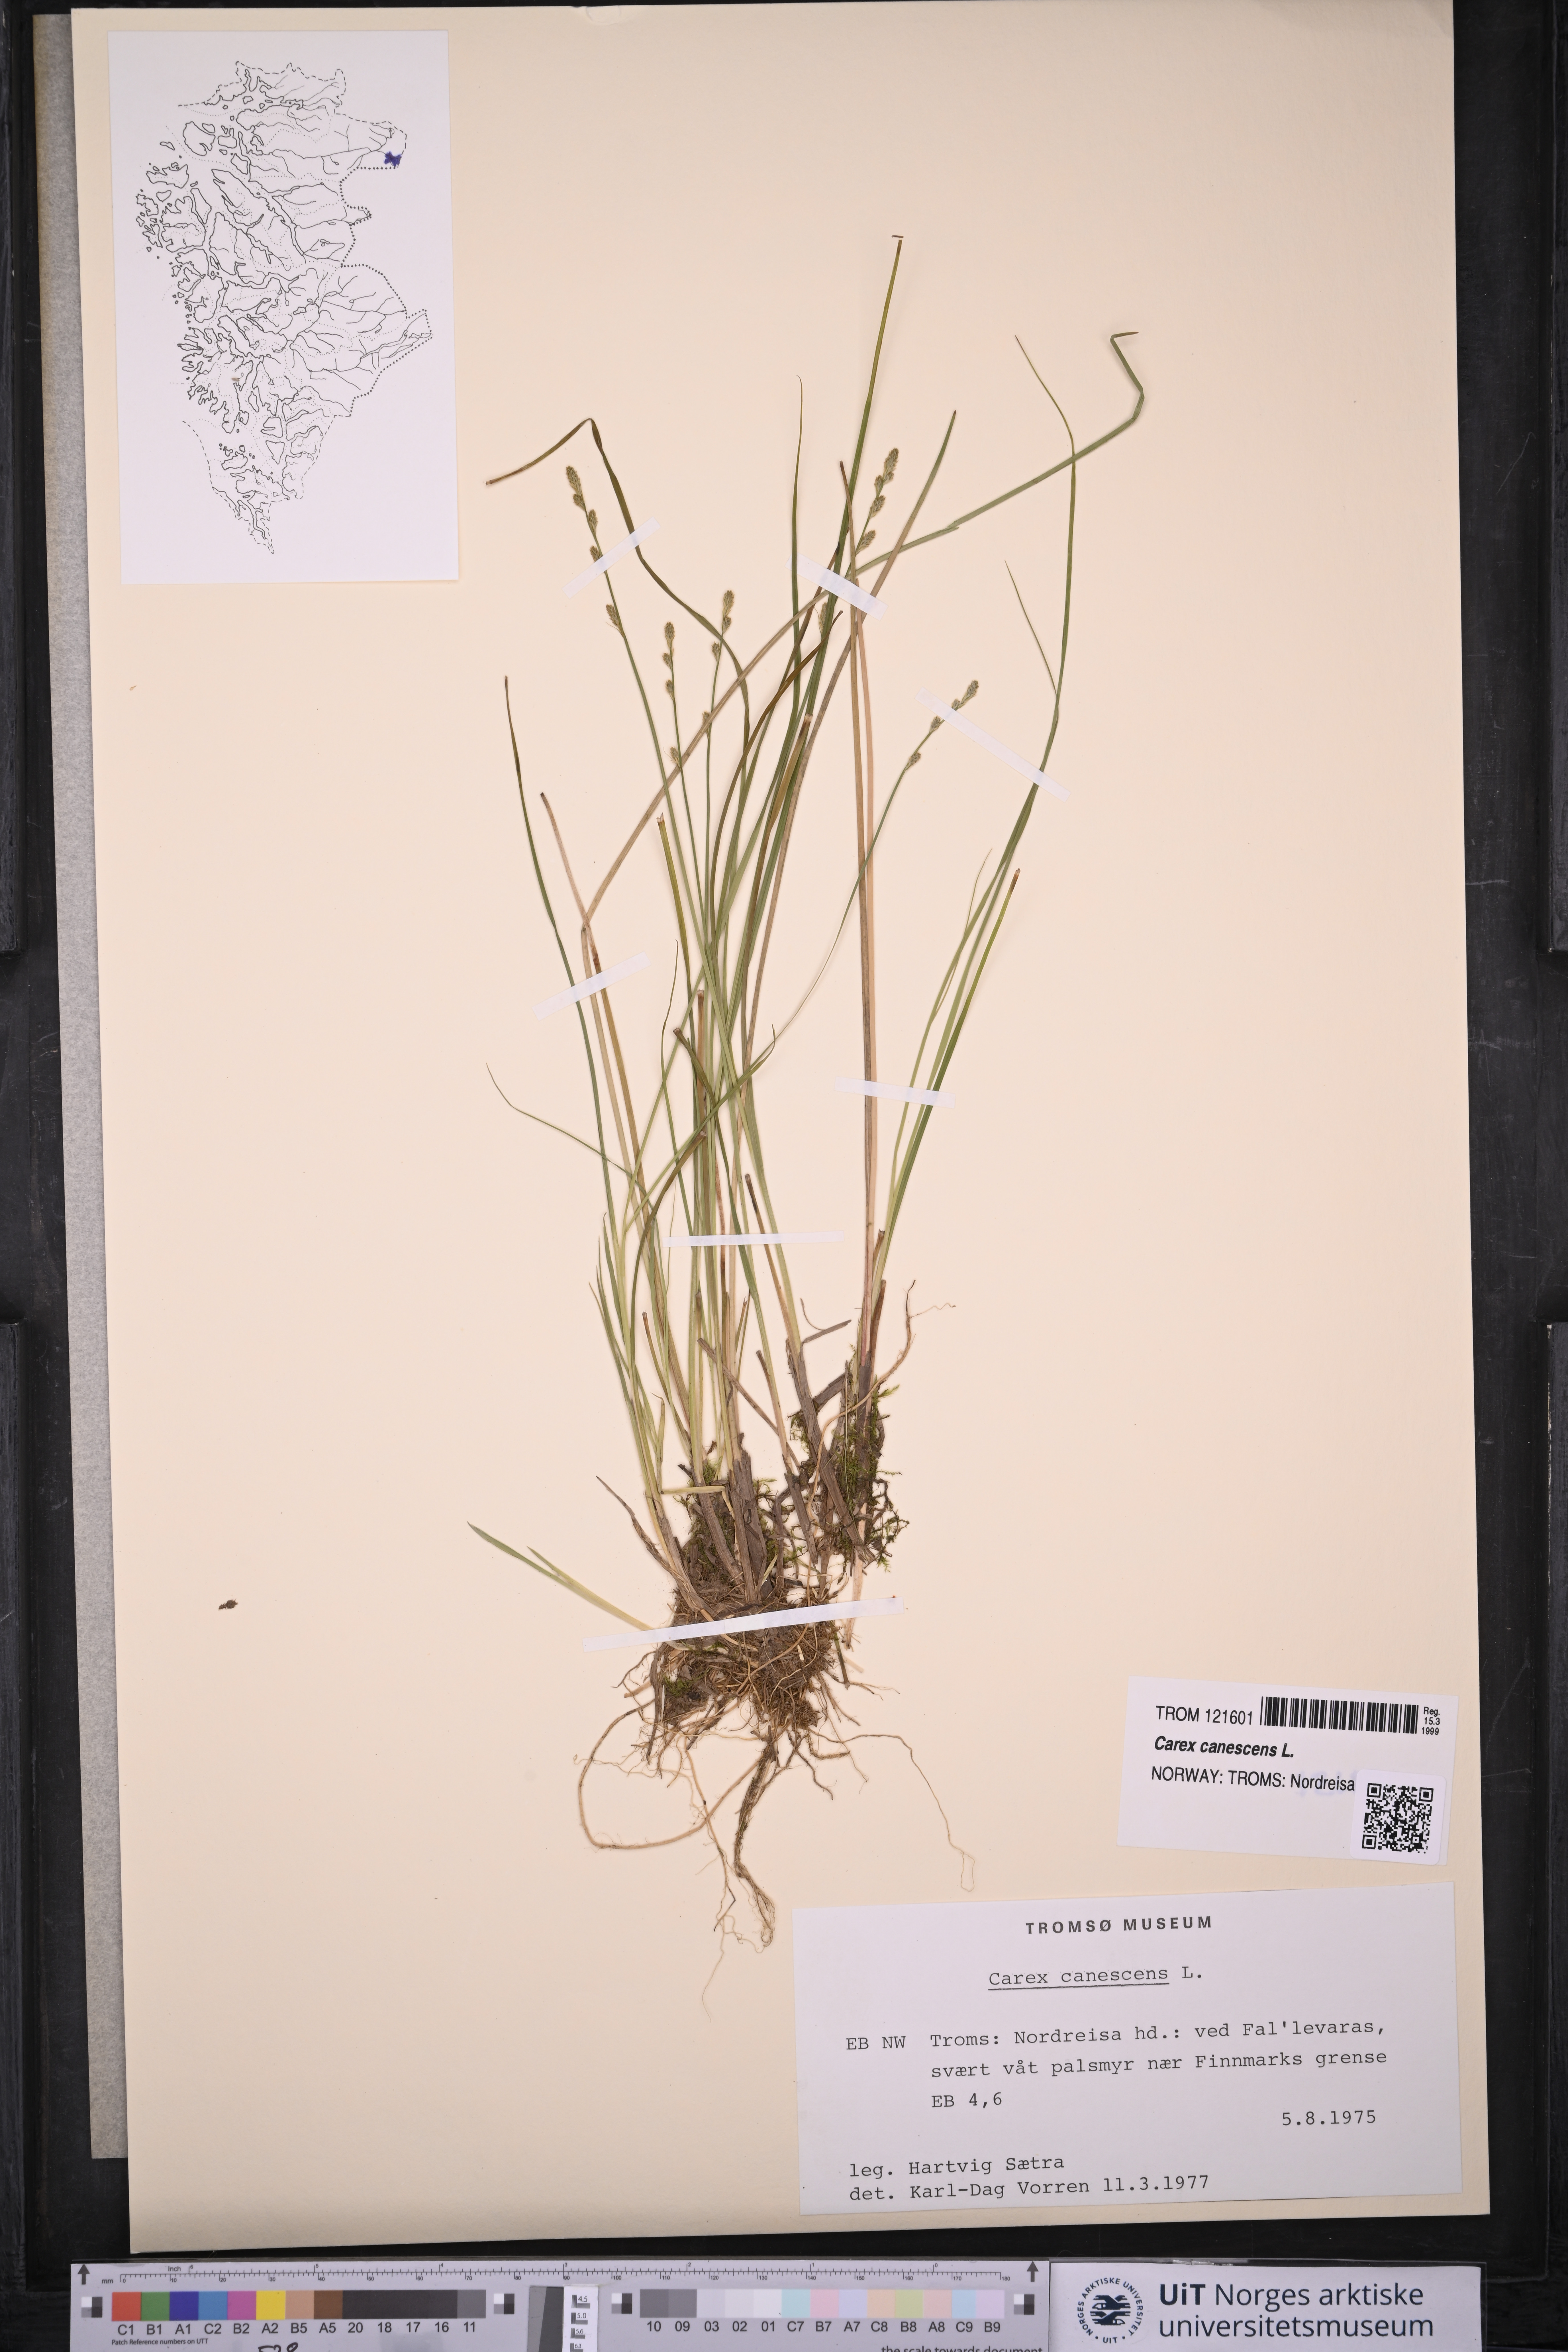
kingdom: Plantae
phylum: Tracheophyta
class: Liliopsida
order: Poales
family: Cyperaceae
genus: Carex
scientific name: Carex canescens
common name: White sedge
